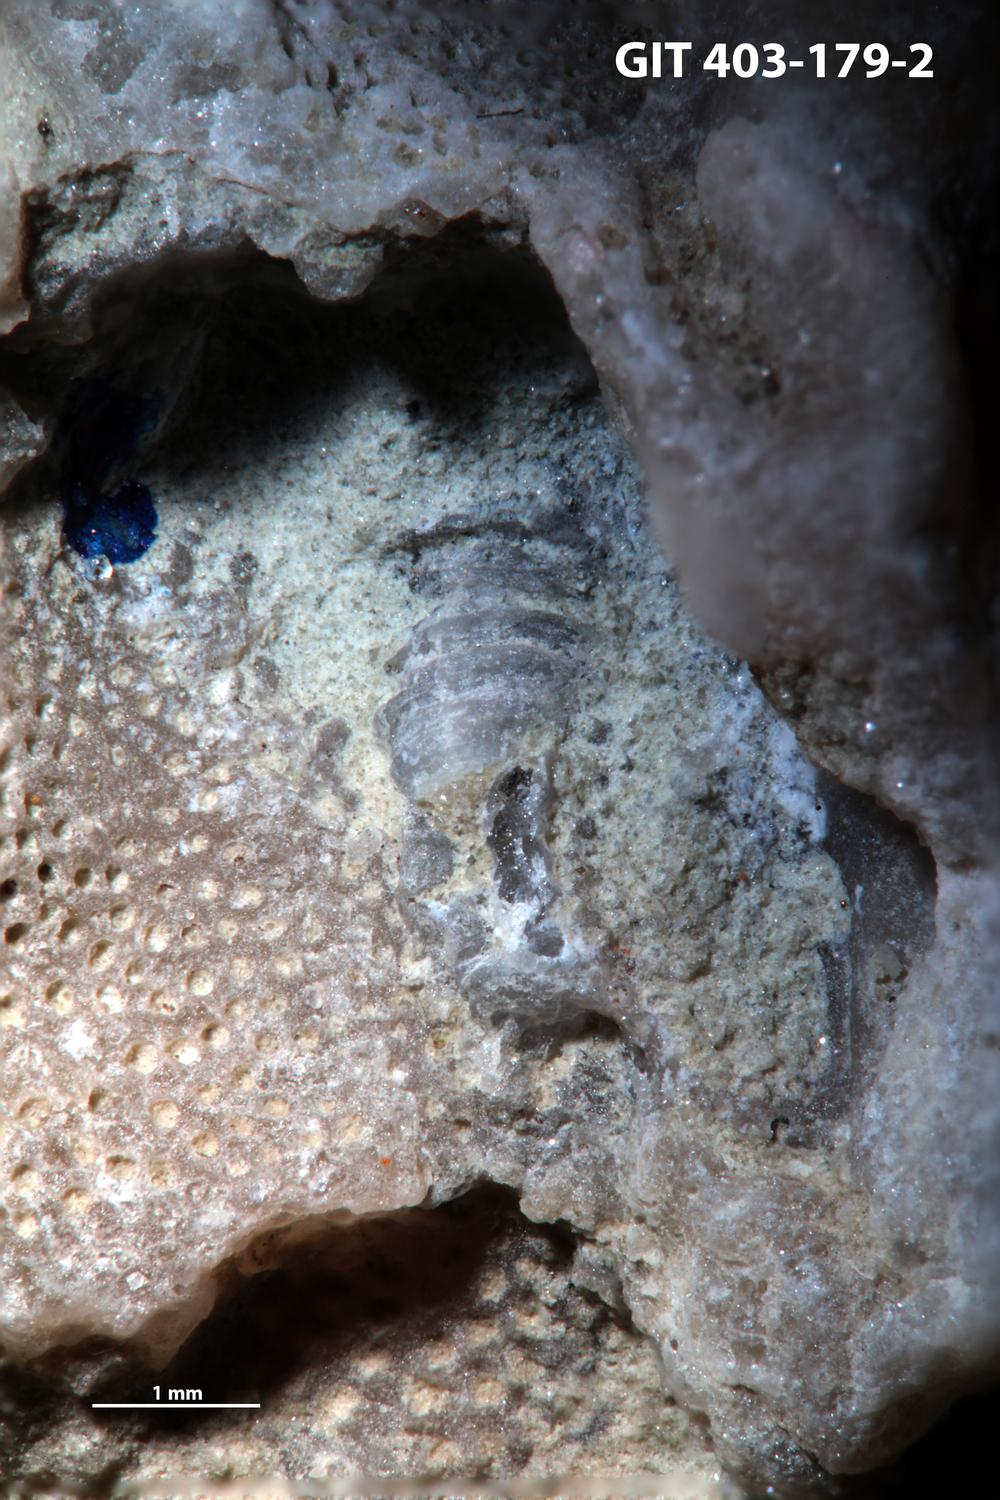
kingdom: Animalia
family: Cornulitidae
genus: Cornulites
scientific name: Cornulites
